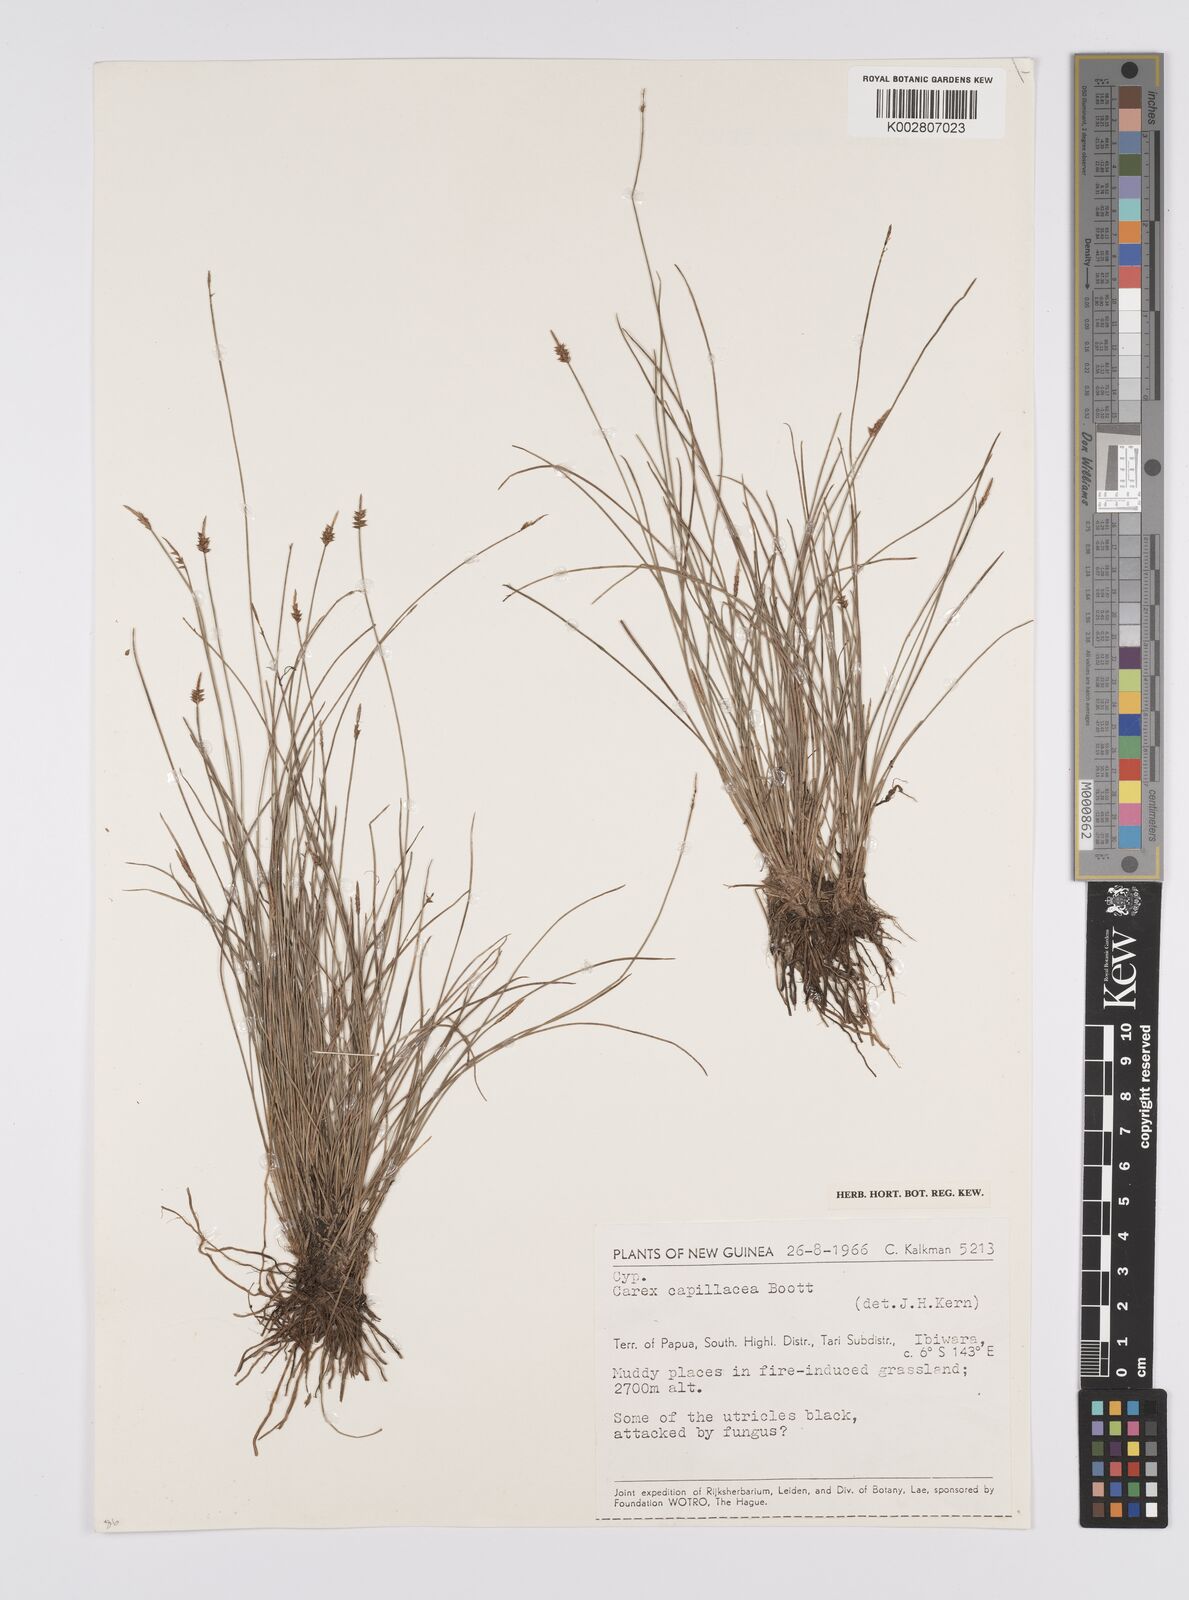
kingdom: Plantae
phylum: Tracheophyta
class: Liliopsida
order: Poales
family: Cyperaceae
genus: Carex
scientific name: Carex capillacea
